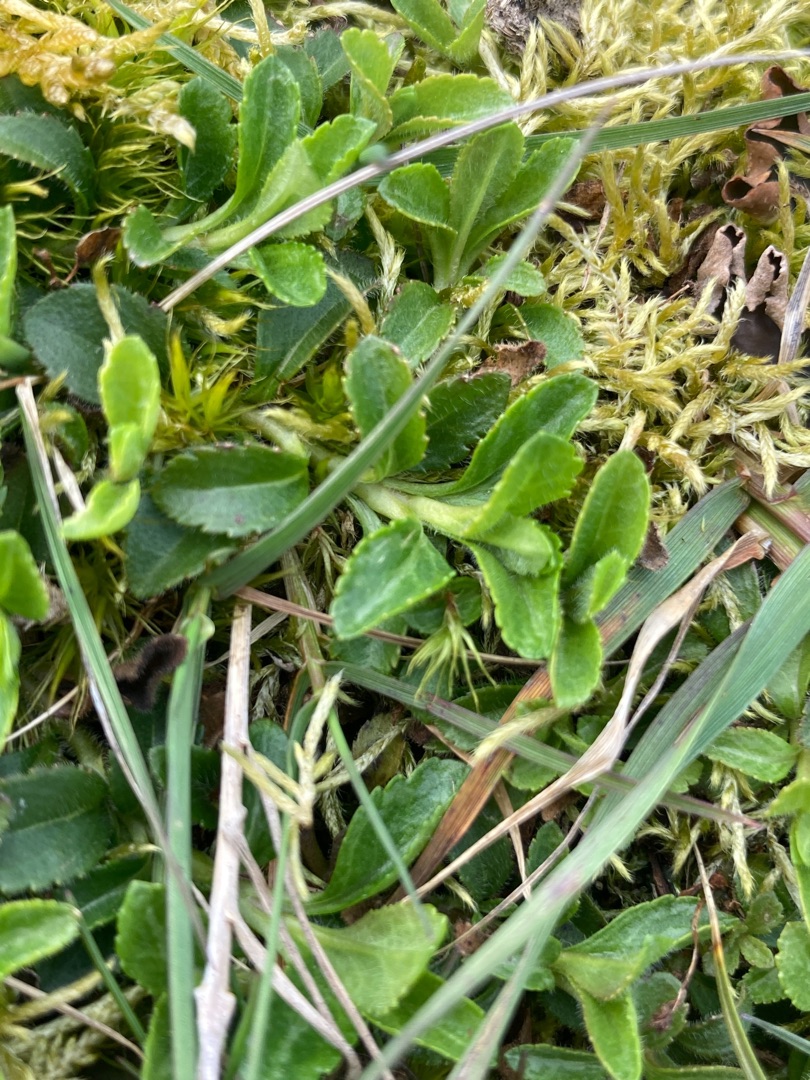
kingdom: Plantae
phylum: Tracheophyta
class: Magnoliopsida
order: Lamiales
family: Plantaginaceae
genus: Veronica
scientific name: Veronica officinalis
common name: Læge-ærenpris
